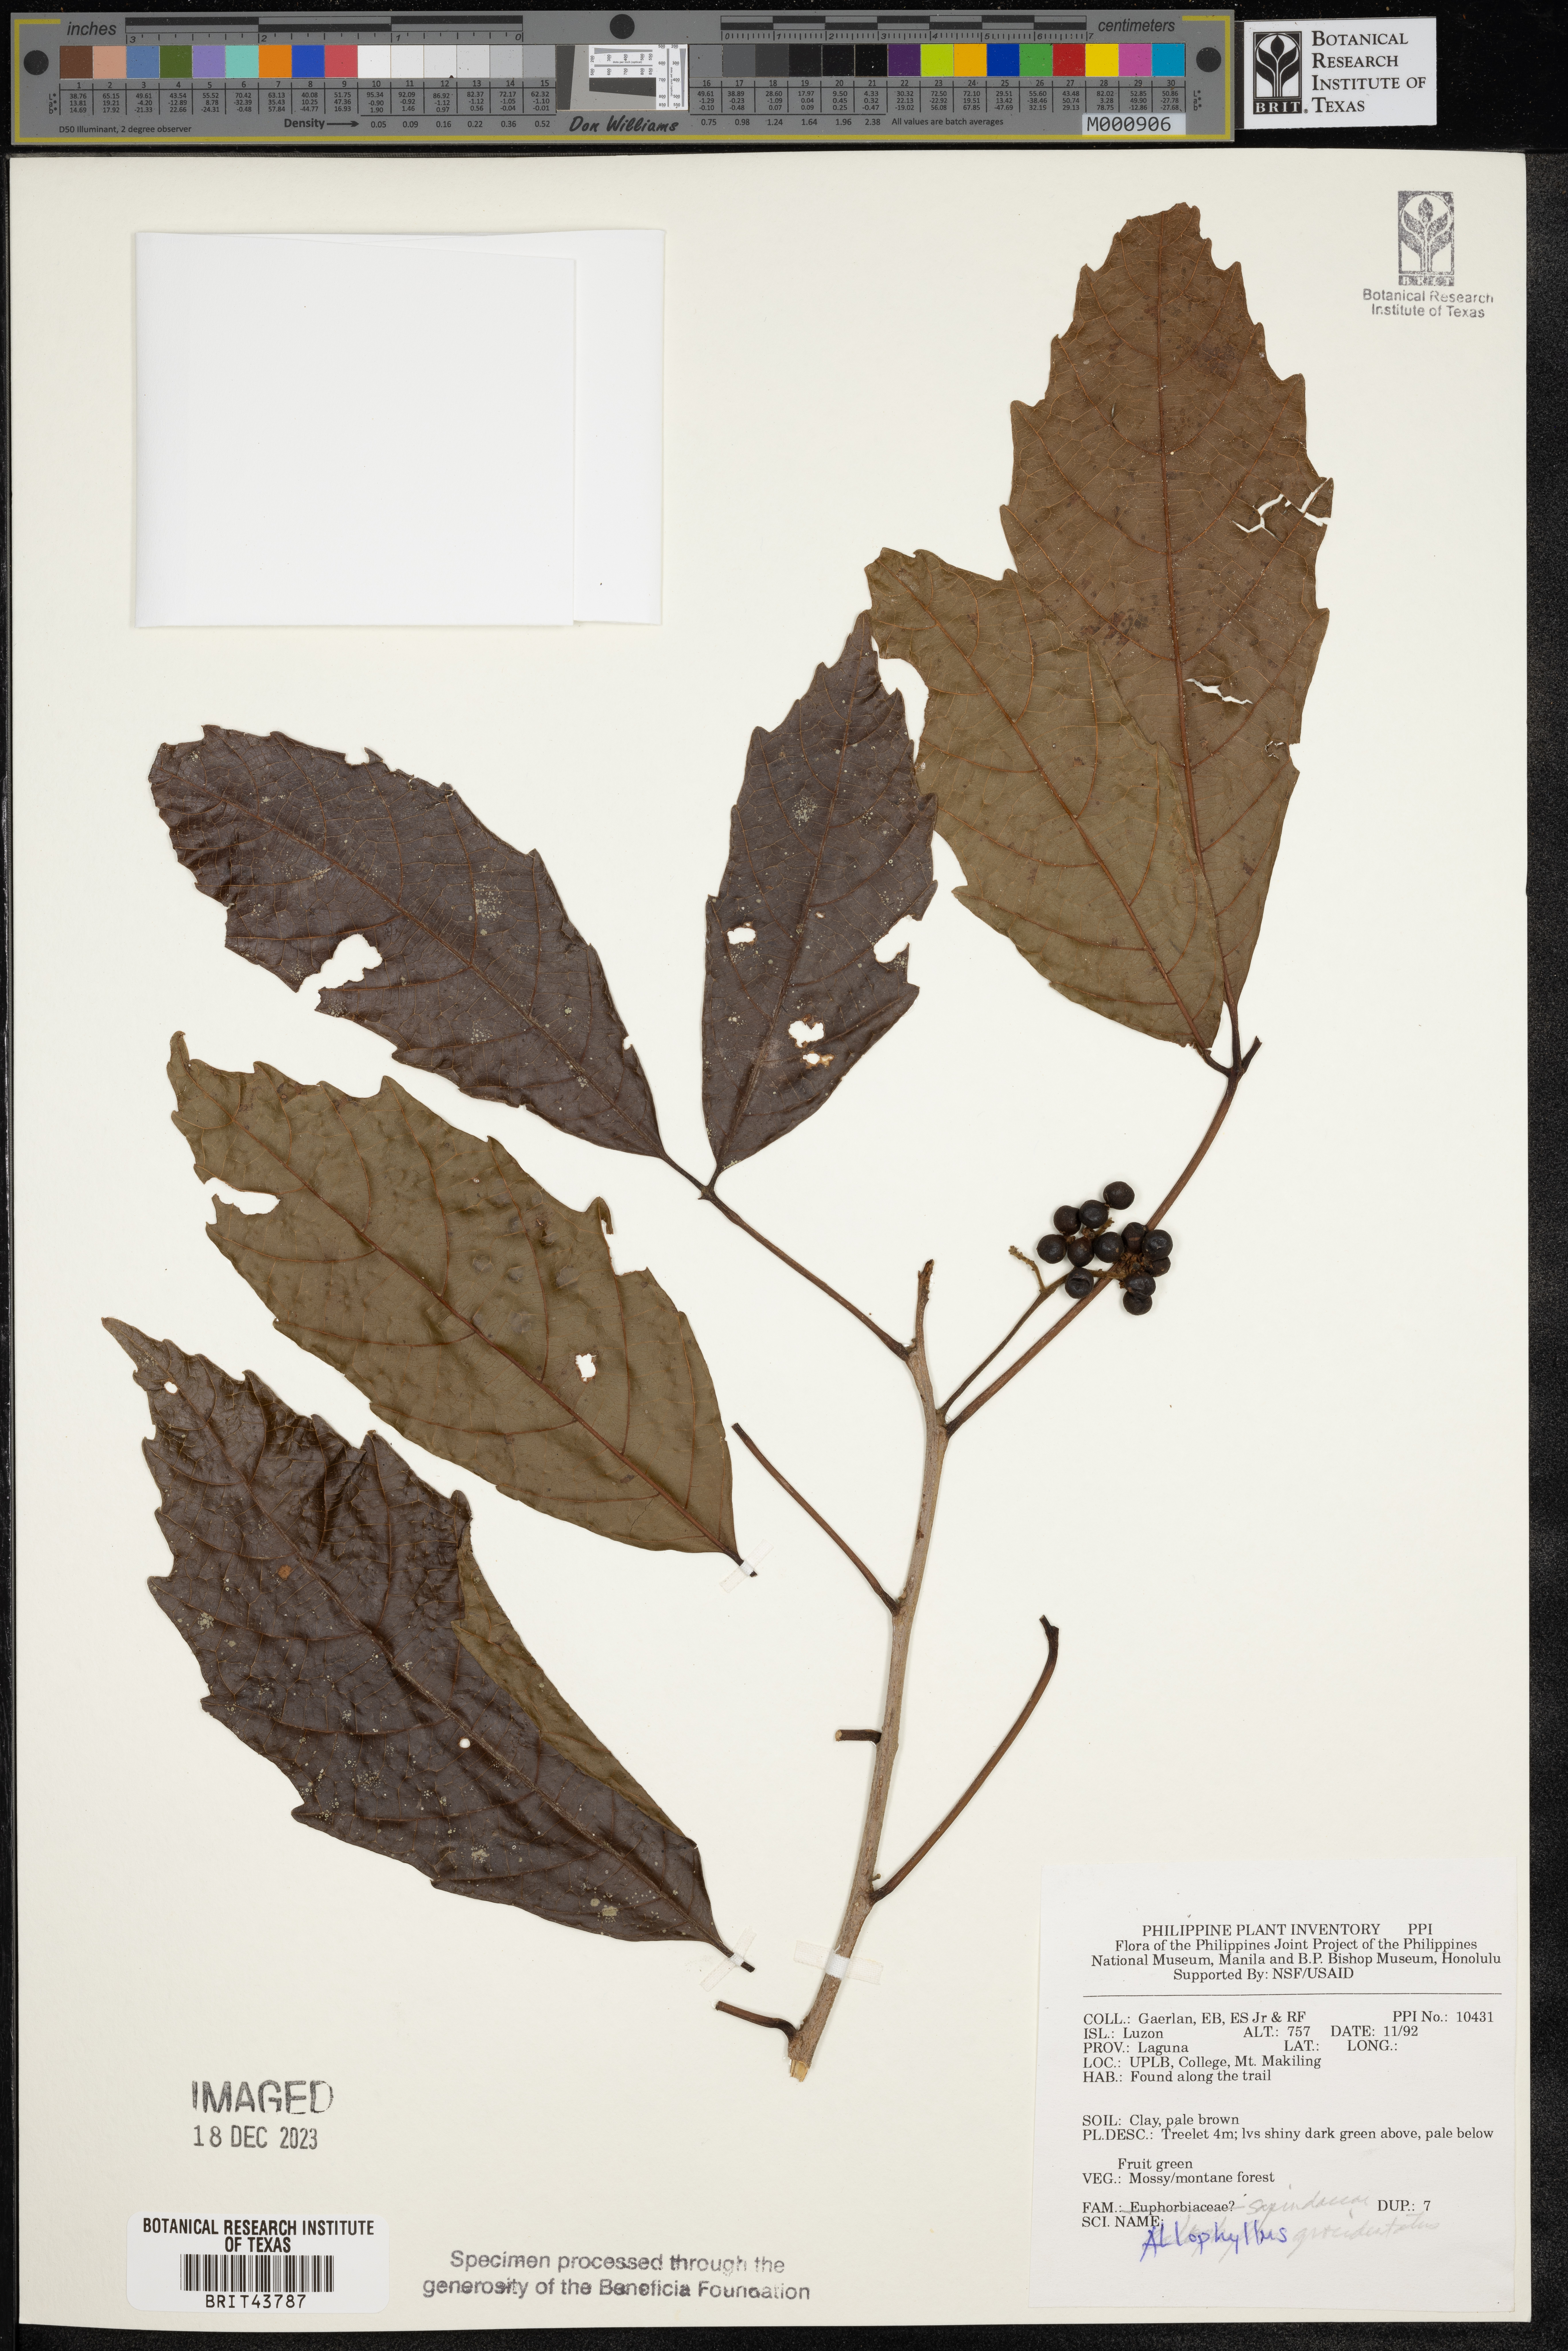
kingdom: Plantae
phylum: Tracheophyta
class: Magnoliopsida
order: Sapindales
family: Sapindaceae
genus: Allophylus
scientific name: Allophylus grossedentatus
